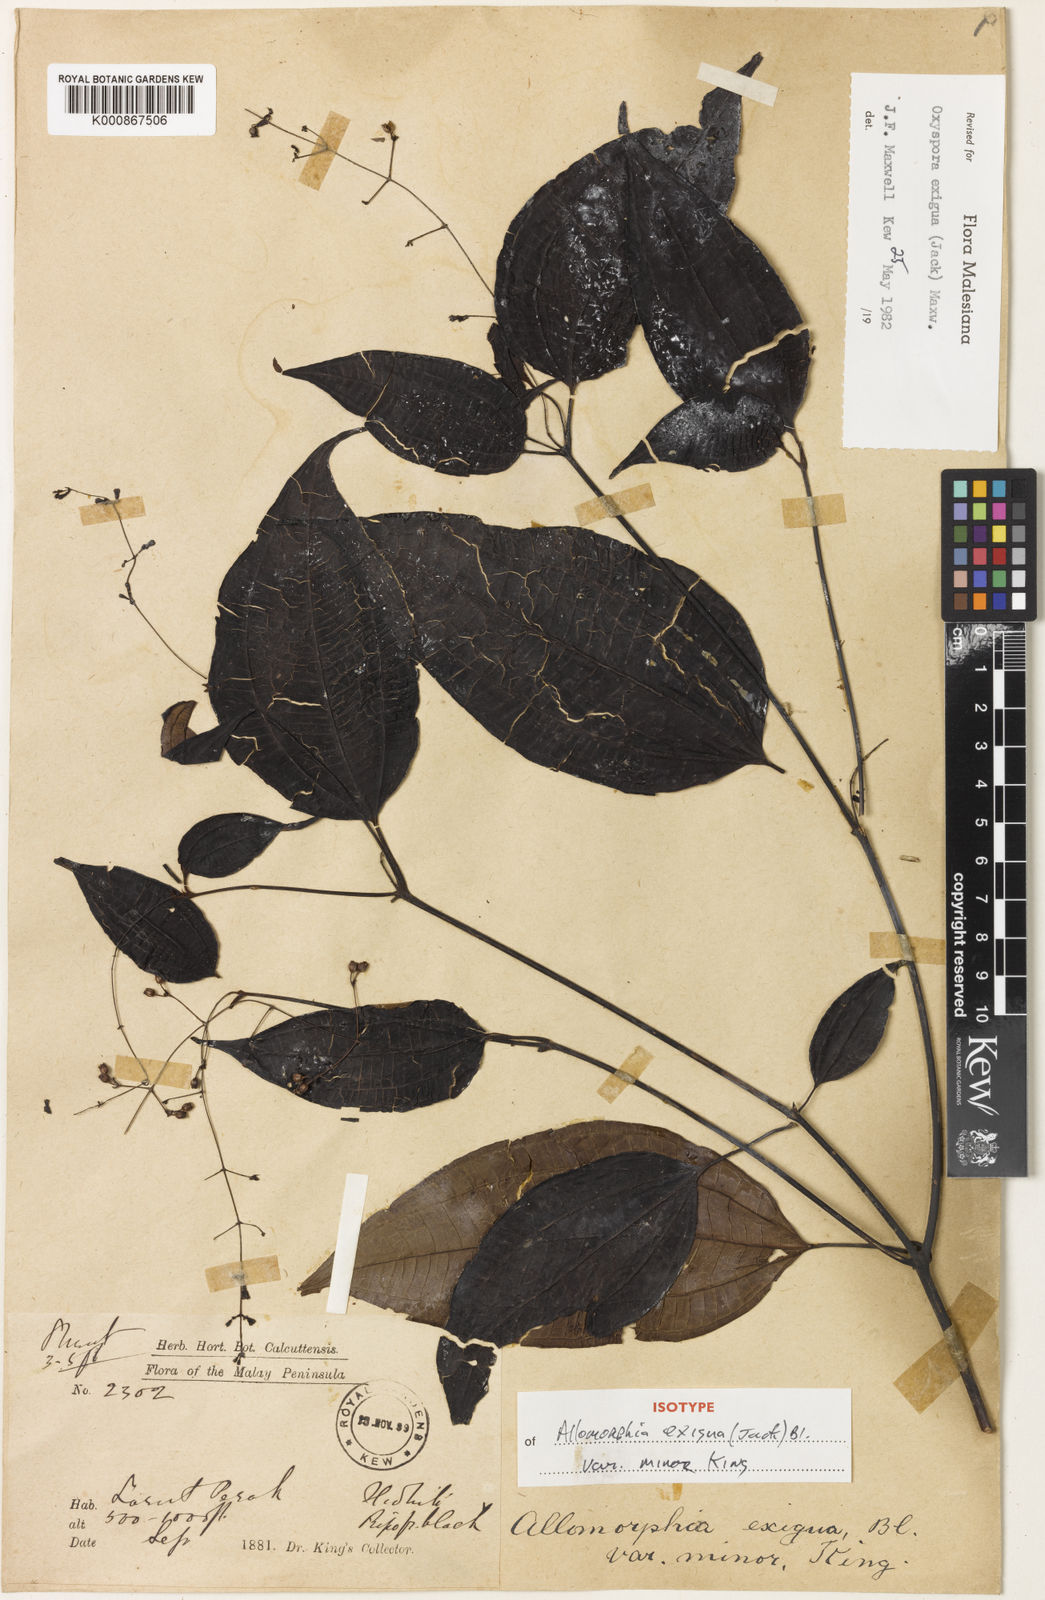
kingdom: Plantae
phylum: Tracheophyta
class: Magnoliopsida
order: Myrtales
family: Melastomataceae
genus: Allomorphia
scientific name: Allomorphia exigua
